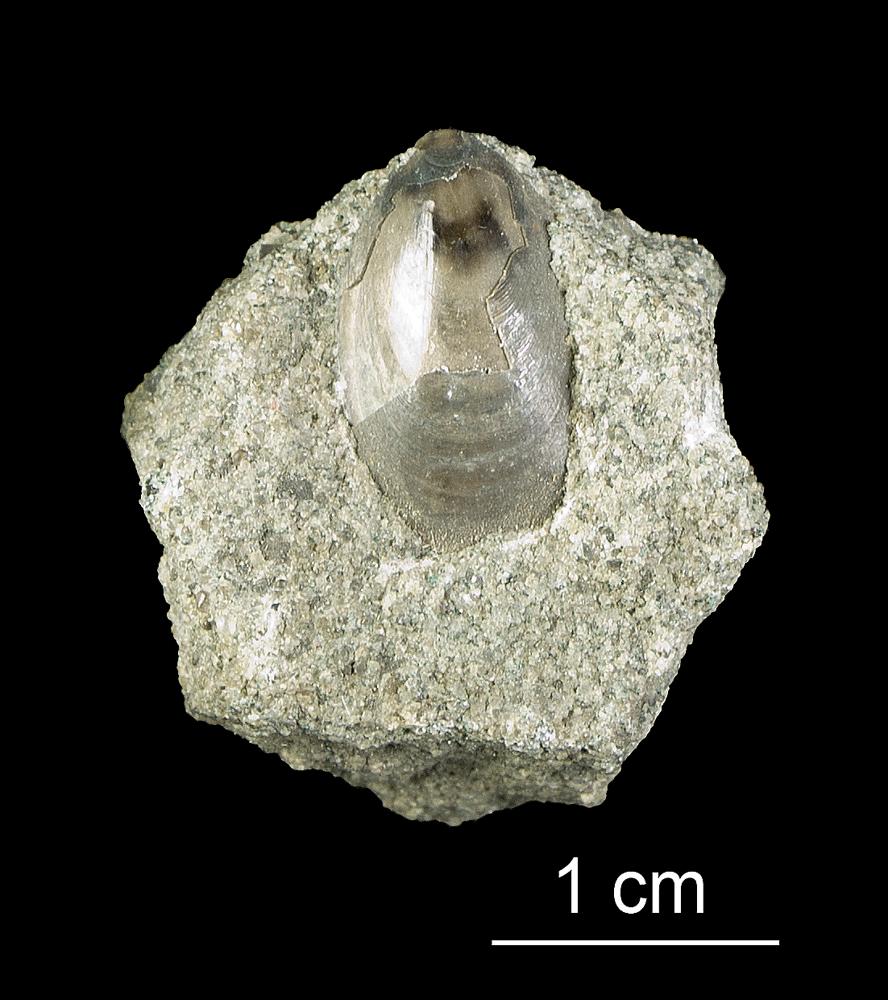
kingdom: Animalia
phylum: Brachiopoda
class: Lingulata
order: Lingulida
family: Obolidae
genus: Leptembolon
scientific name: Leptembolon lingulaeformis
